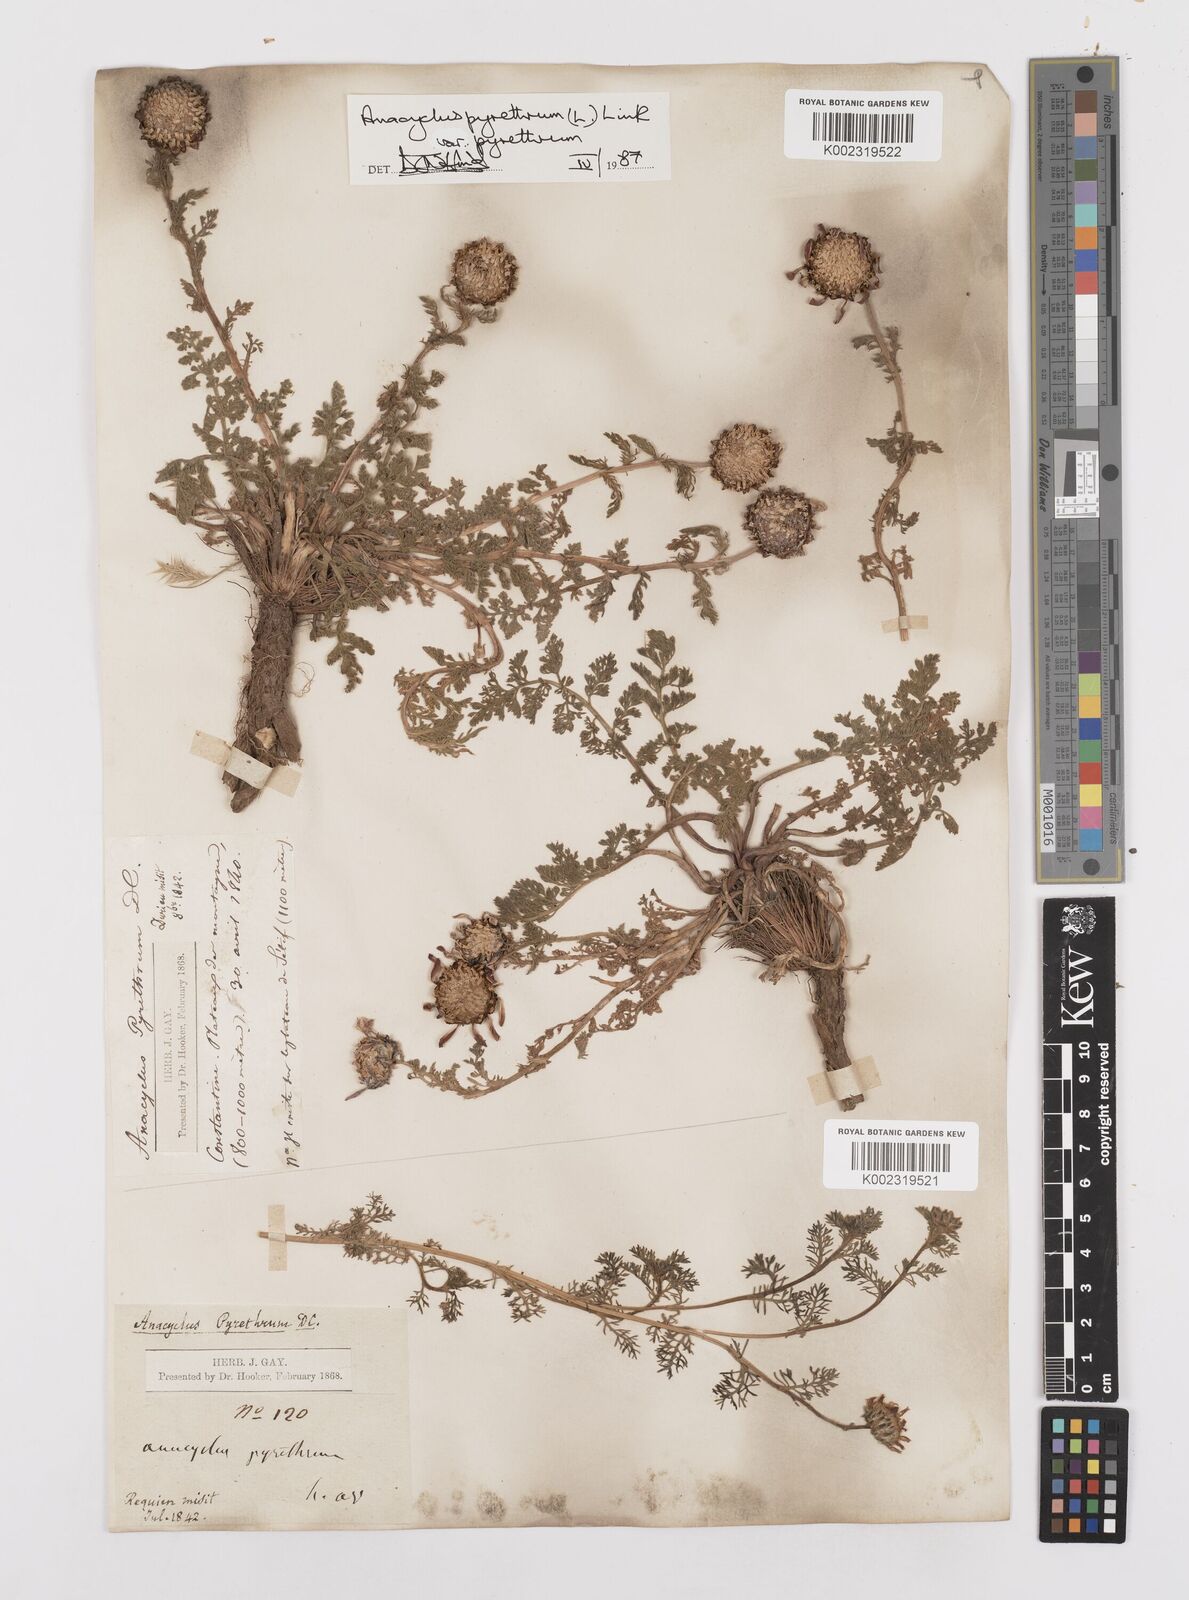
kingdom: Plantae
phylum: Tracheophyta
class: Magnoliopsida
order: Asterales
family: Asteraceae
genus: Anacyclus
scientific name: Anacyclus pyrethrum
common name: Mt. atlas daisy
